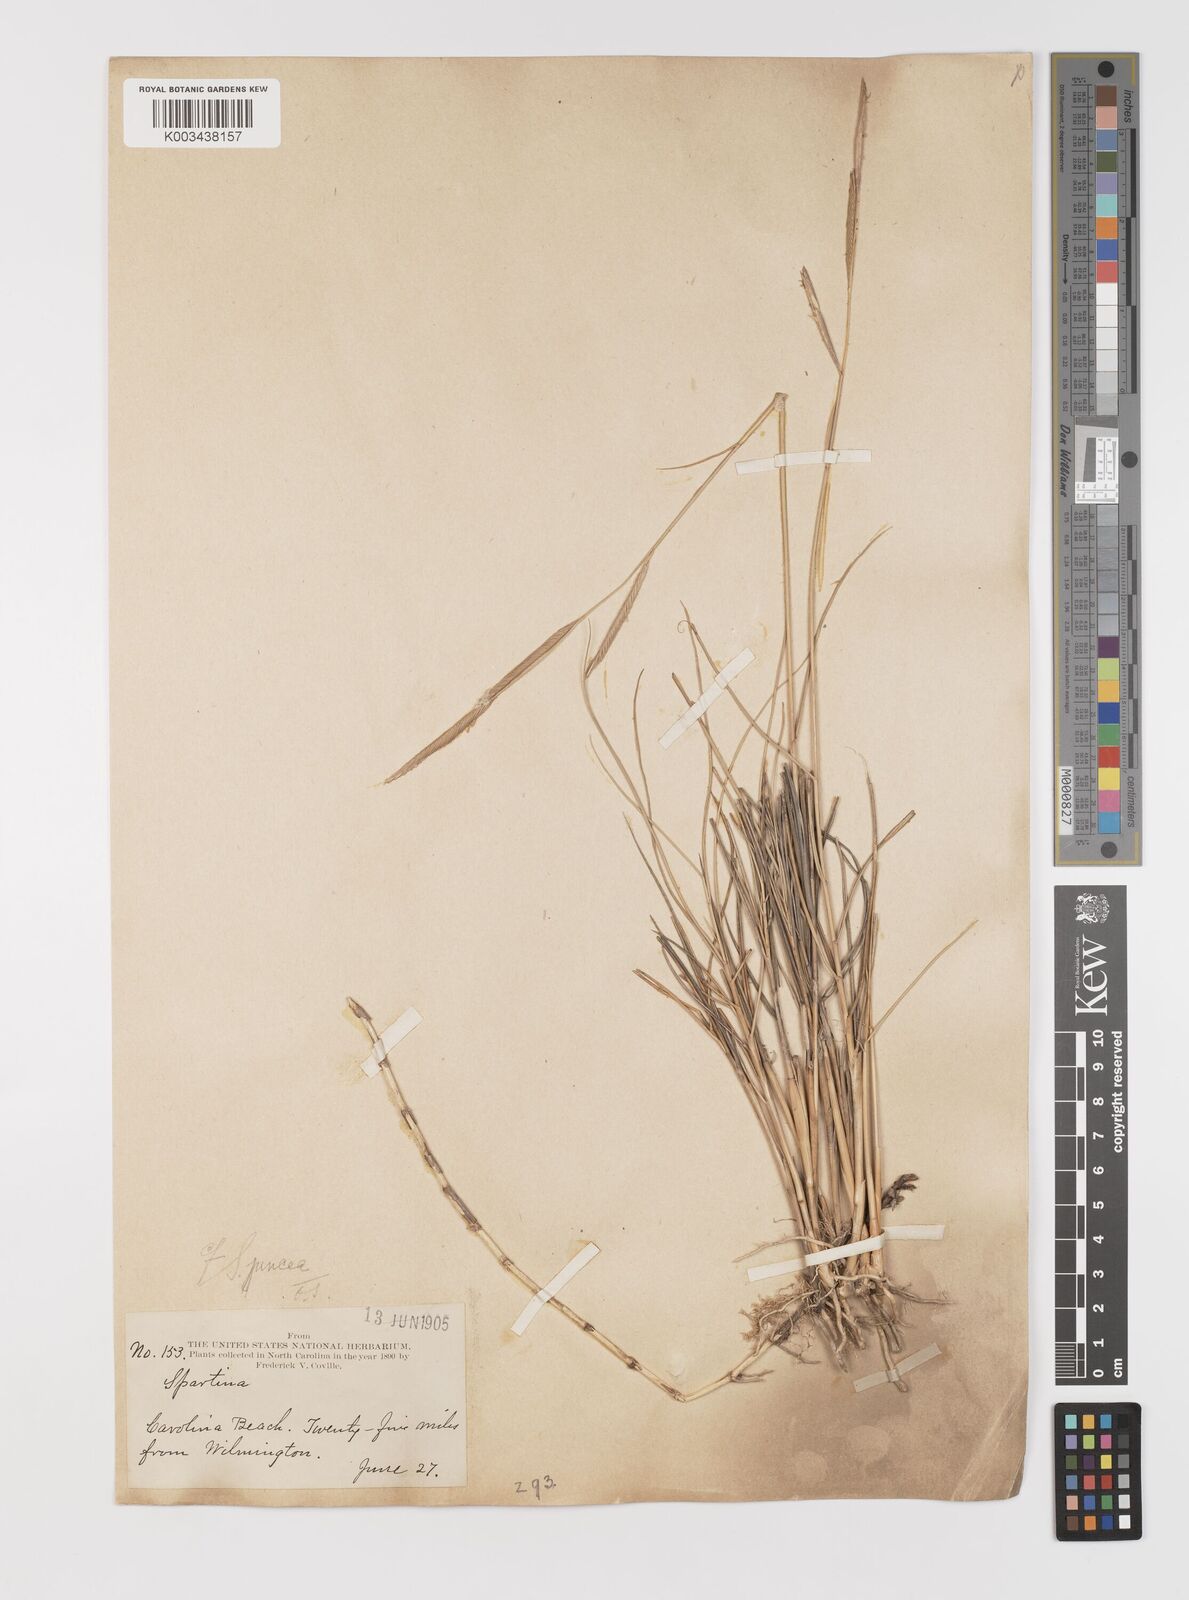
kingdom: Plantae
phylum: Tracheophyta
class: Liliopsida
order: Poales
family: Poaceae
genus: Sporobolus
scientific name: Sporobolus pumilus
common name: Highwater grass
